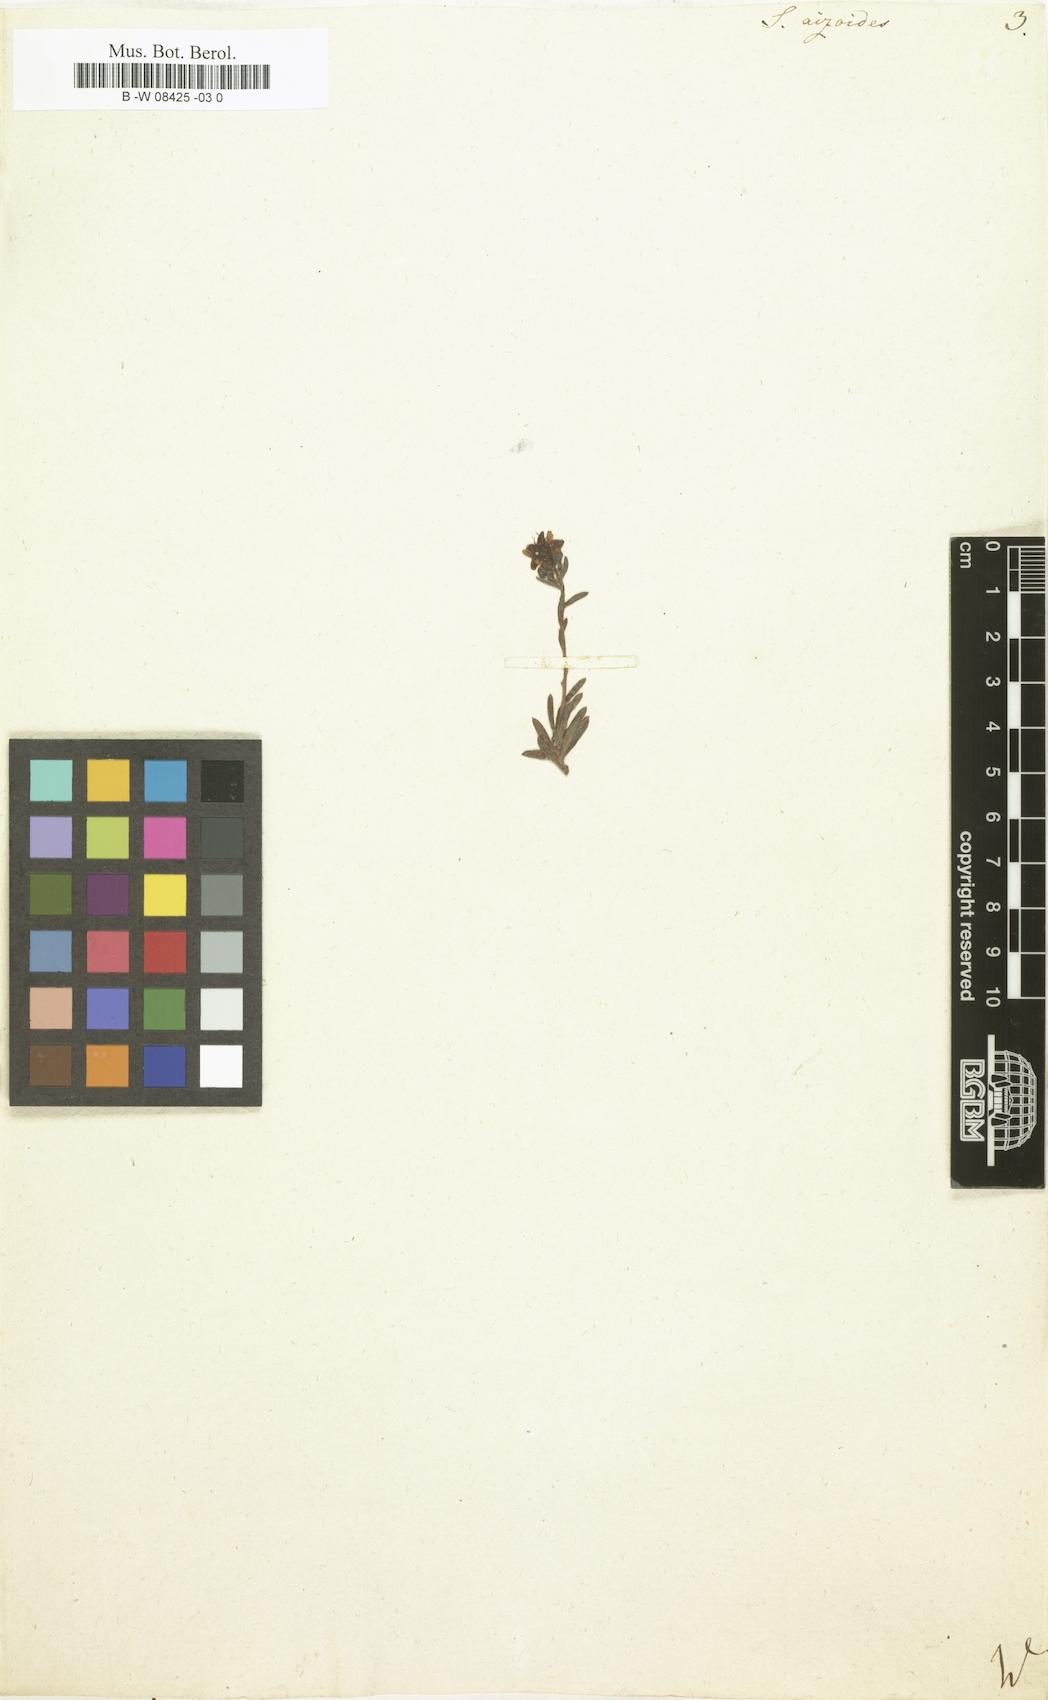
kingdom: Plantae
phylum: Tracheophyta
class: Magnoliopsida
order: Saxifragales
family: Saxifragaceae
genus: Saxifraga
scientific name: Saxifraga aizoides
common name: Yellow mountain saxifrage
